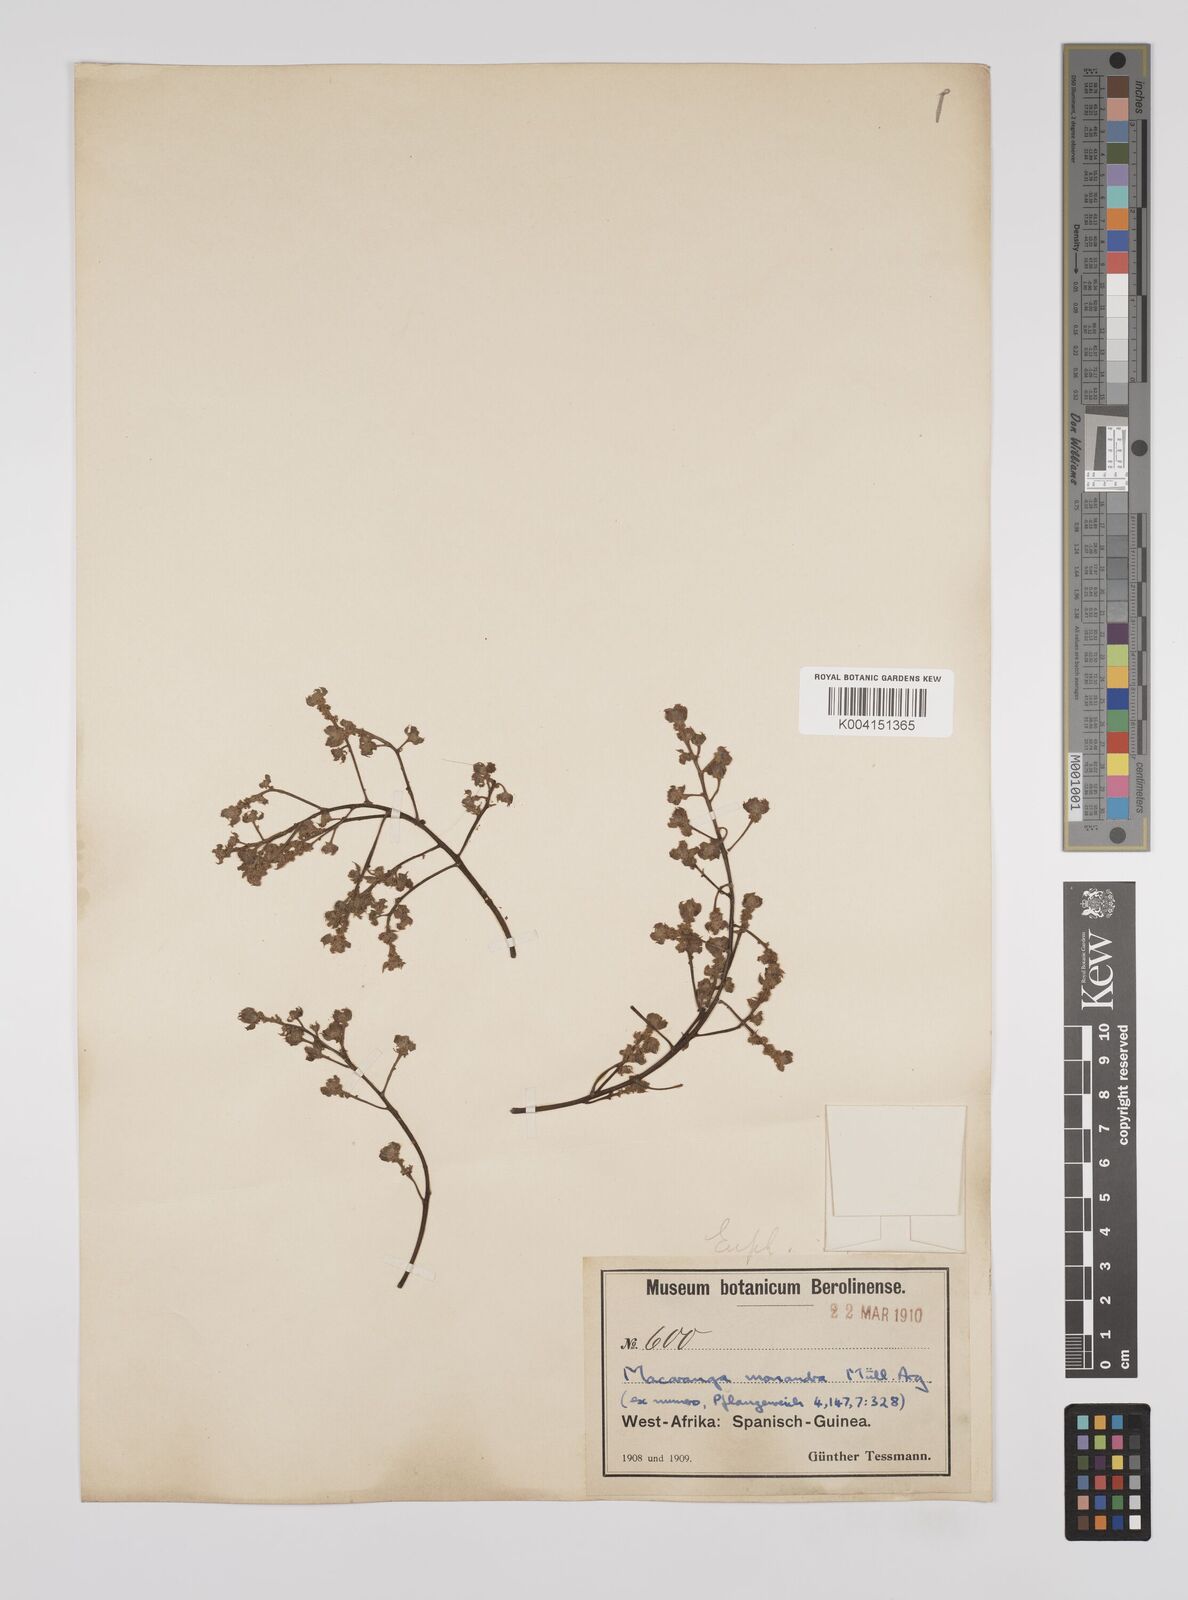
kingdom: Plantae
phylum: Tracheophyta
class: Magnoliopsida
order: Malpighiales
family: Euphorbiaceae
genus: Macaranga
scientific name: Macaranga monandra
